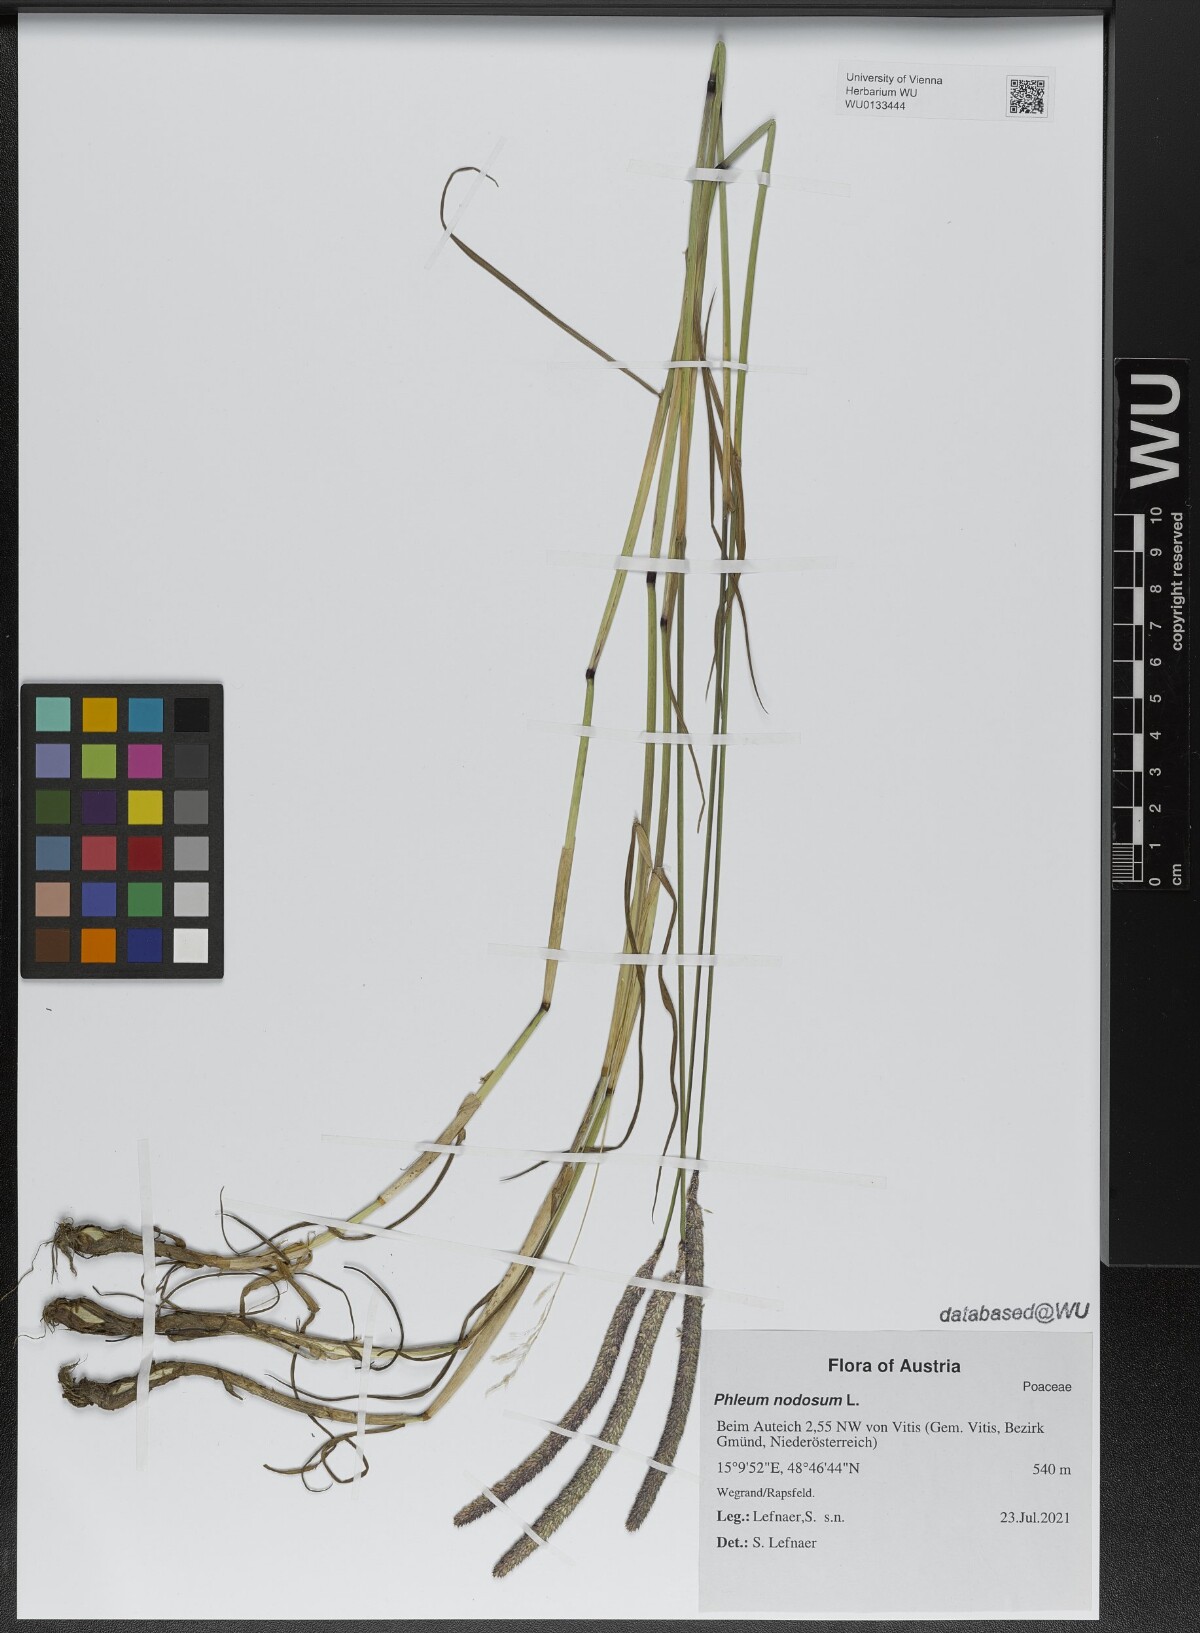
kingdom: Plantae
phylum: Tracheophyta
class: Liliopsida
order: Poales
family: Poaceae
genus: Phleum
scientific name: Phleum pratense
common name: Timothy grass
